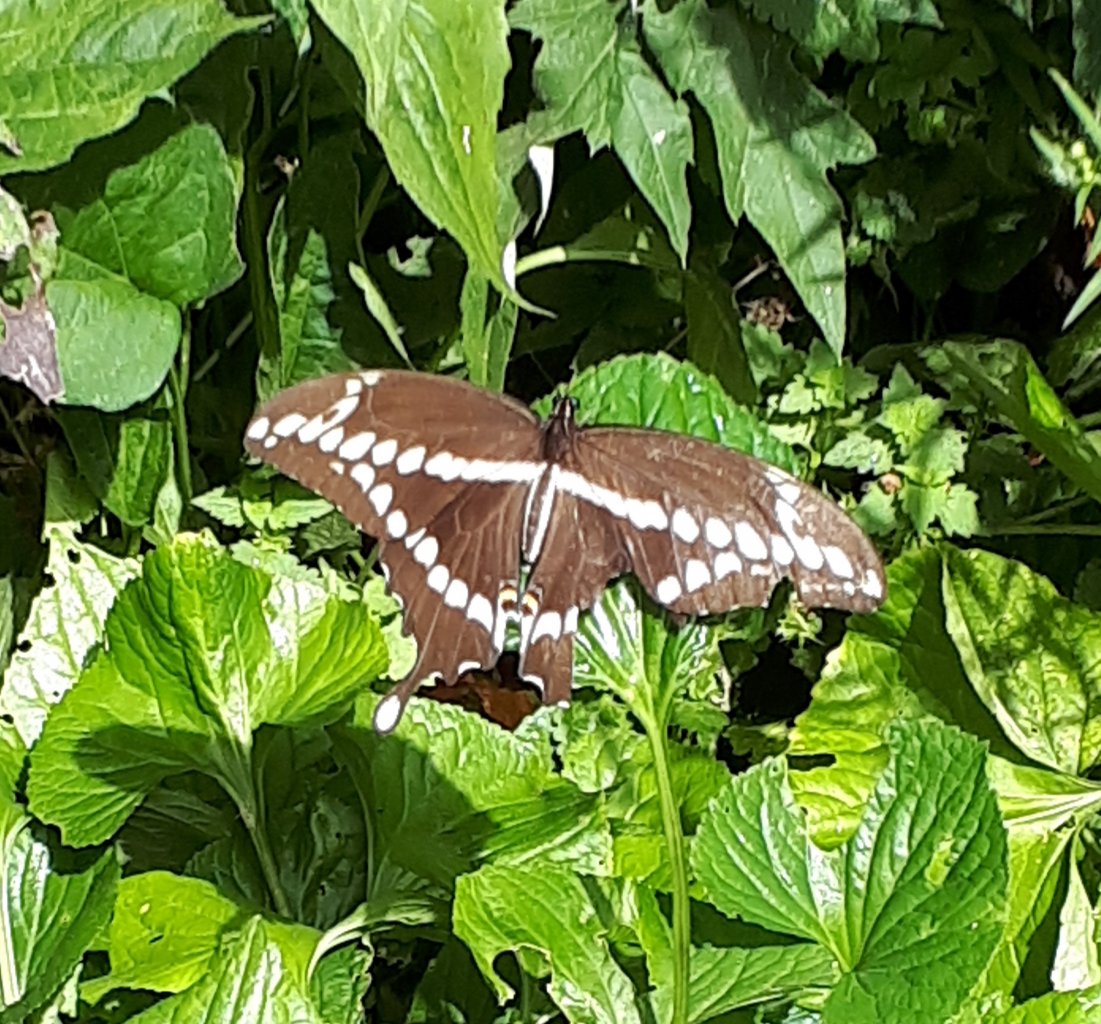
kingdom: Animalia
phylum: Arthropoda
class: Insecta
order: Lepidoptera
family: Papilionidae
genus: Papilio
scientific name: Papilio cresphontes
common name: Eastern Giant Swallowtail
